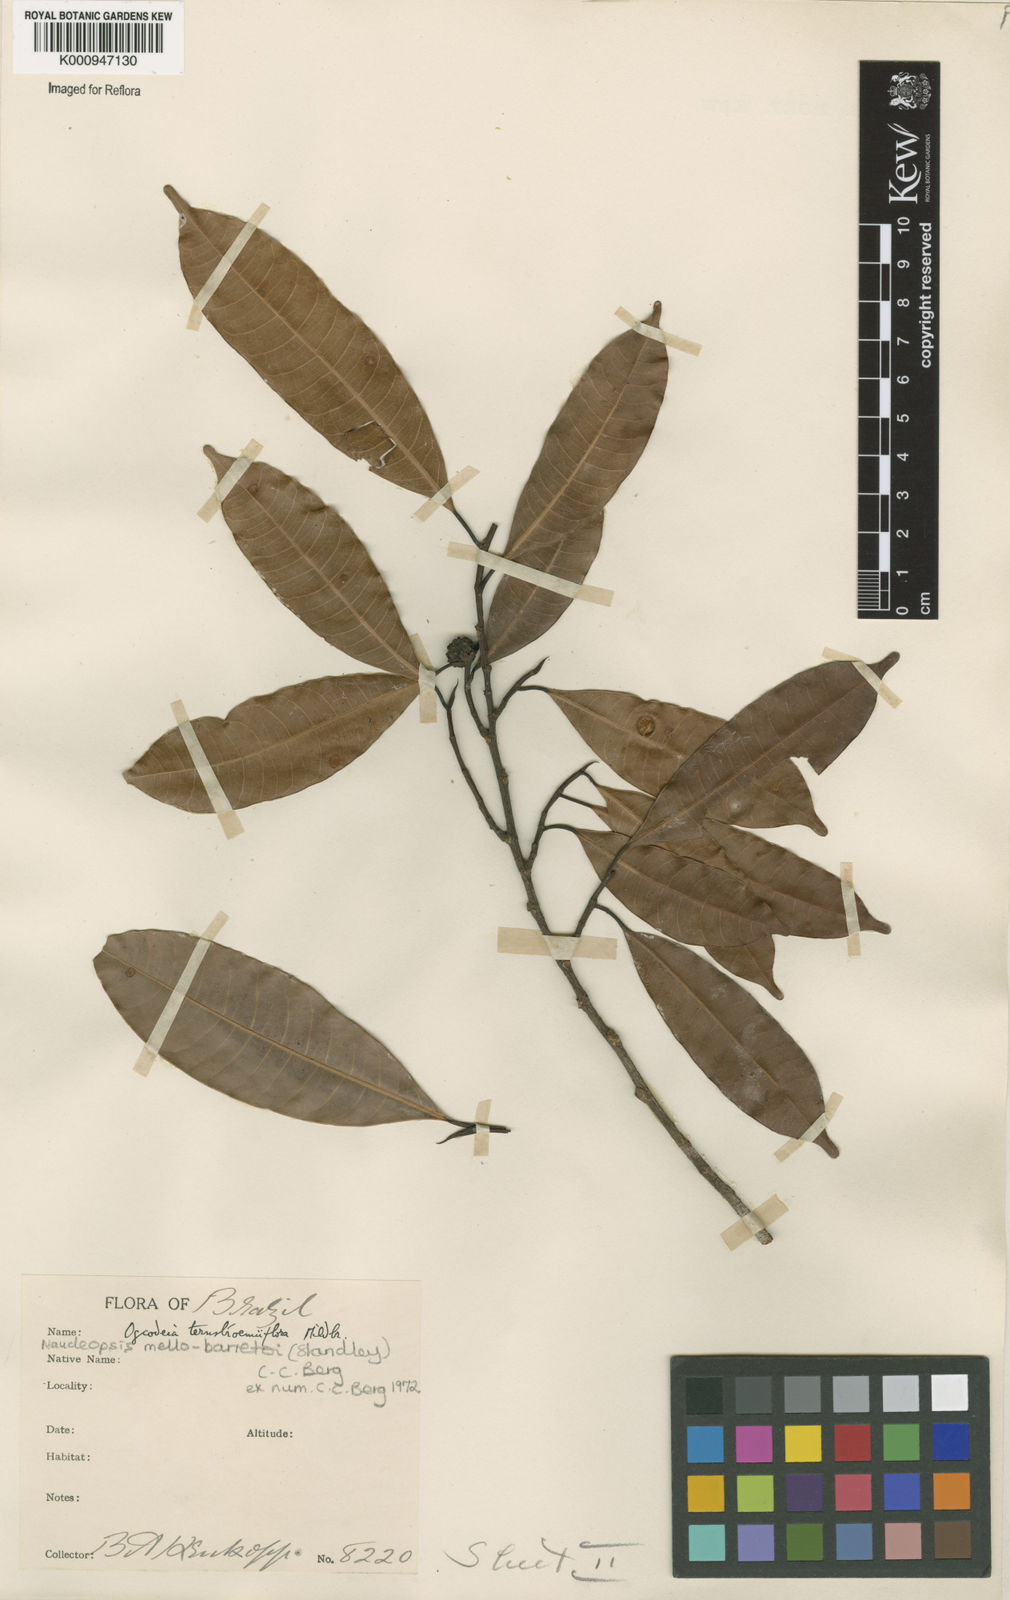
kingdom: Plantae
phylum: Tracheophyta
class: Magnoliopsida
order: Rosales
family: Moraceae
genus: Naucleopsis
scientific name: Naucleopsis oblongifolia
